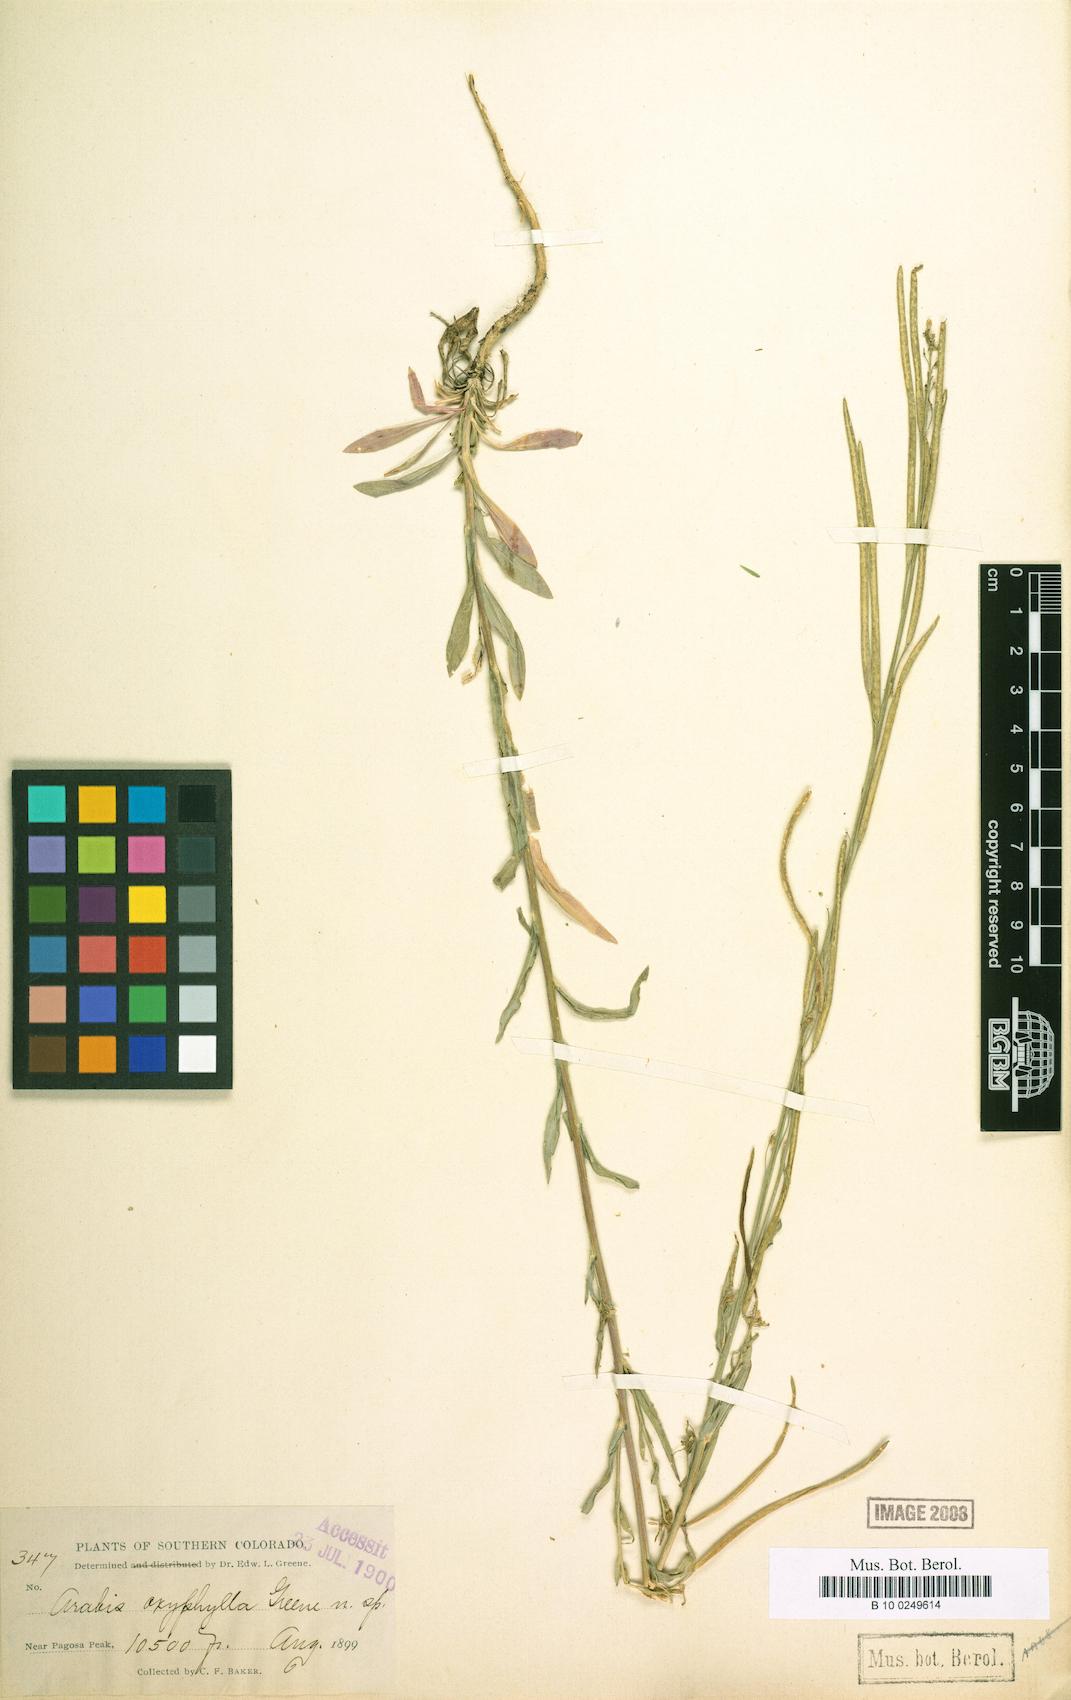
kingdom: Plantae
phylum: Tracheophyta
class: Magnoliopsida
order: Brassicales
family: Brassicaceae
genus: Boechera
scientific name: Boechera stricta
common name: Canadian rockcress
